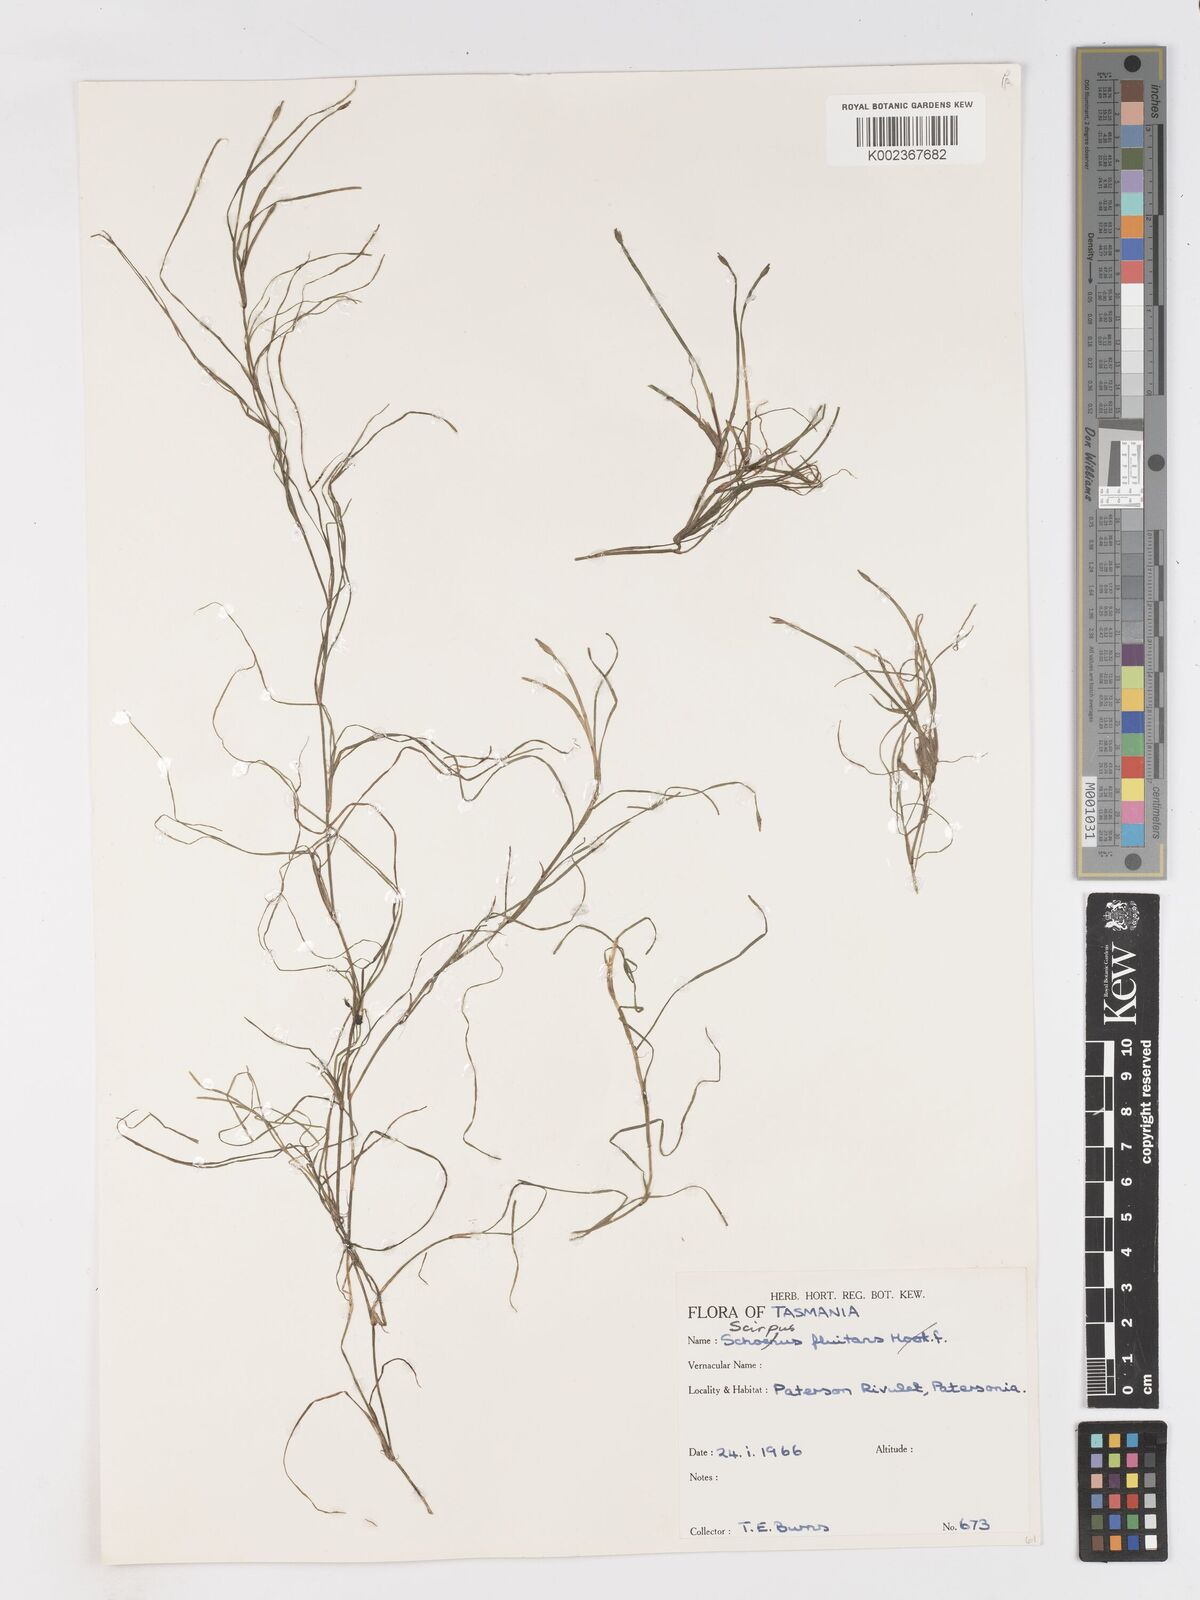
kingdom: Plantae
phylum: Tracheophyta
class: Liliopsida
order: Poales
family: Cyperaceae
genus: Isolepis
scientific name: Isolepis fluitans
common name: Floating club-rush
